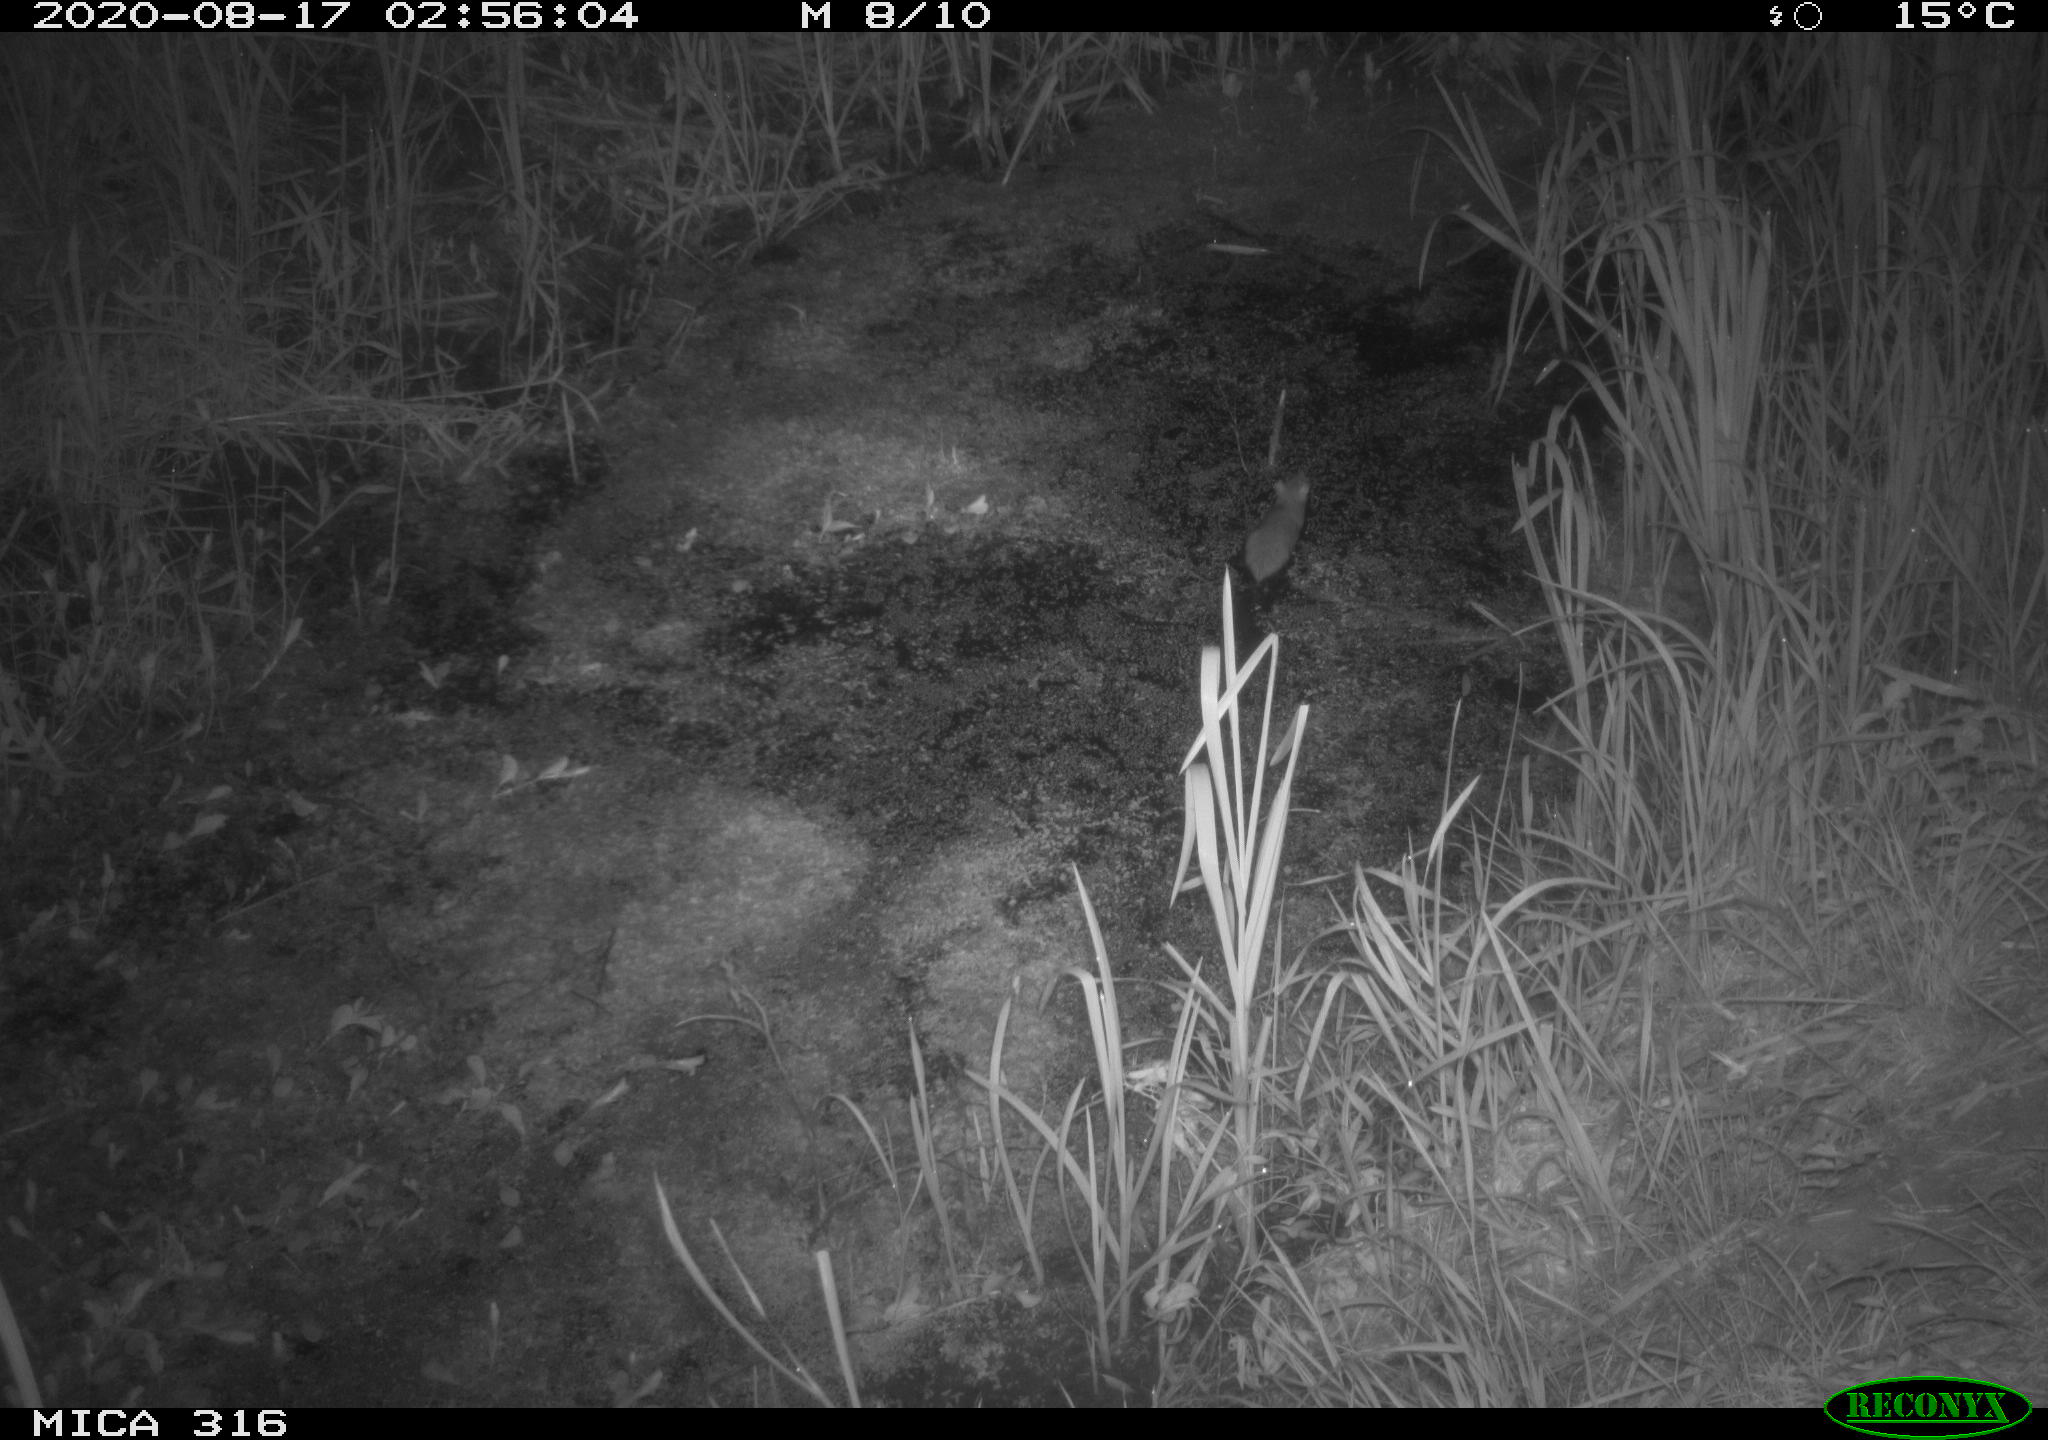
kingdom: Animalia
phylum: Chordata
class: Mammalia
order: Rodentia
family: Muridae
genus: Rattus
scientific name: Rattus norvegicus
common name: Brown rat
